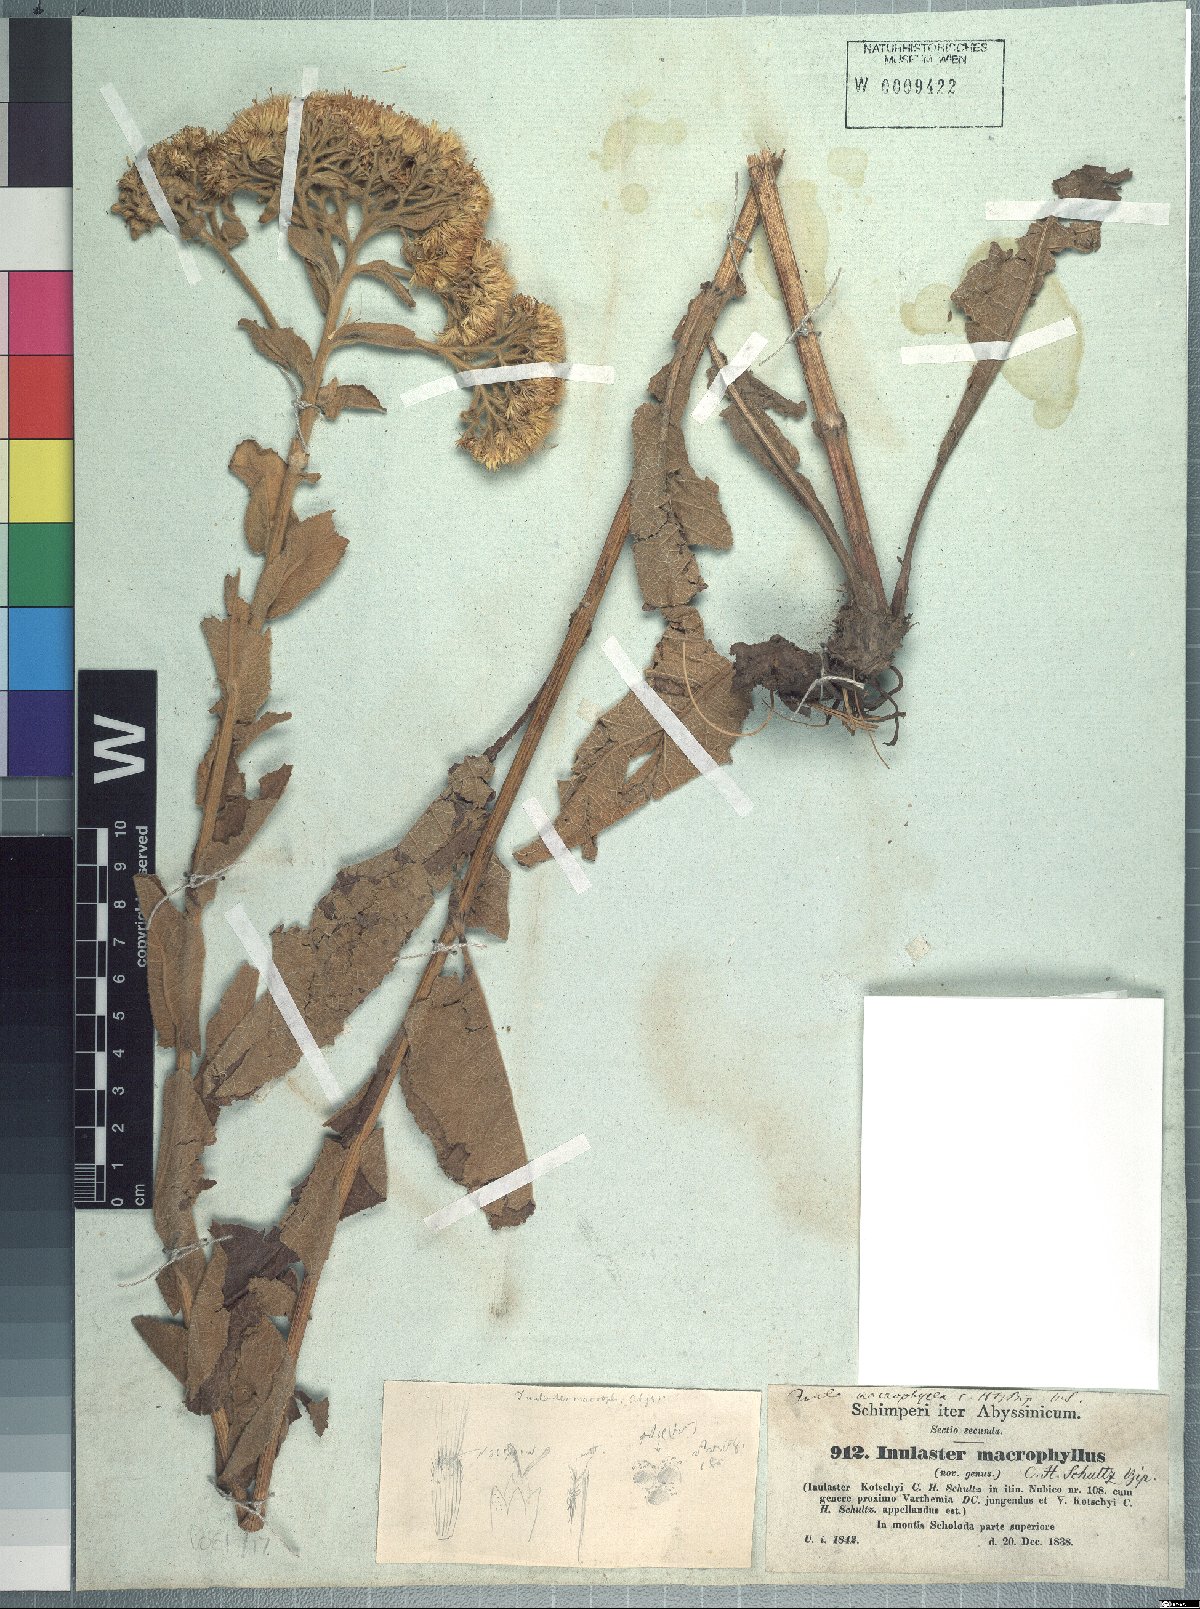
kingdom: Plantae
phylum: Tracheophyta
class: Magnoliopsida
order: Asterales
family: Asteraceae
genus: Monactinocephalus
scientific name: Monactinocephalus paniculatus
